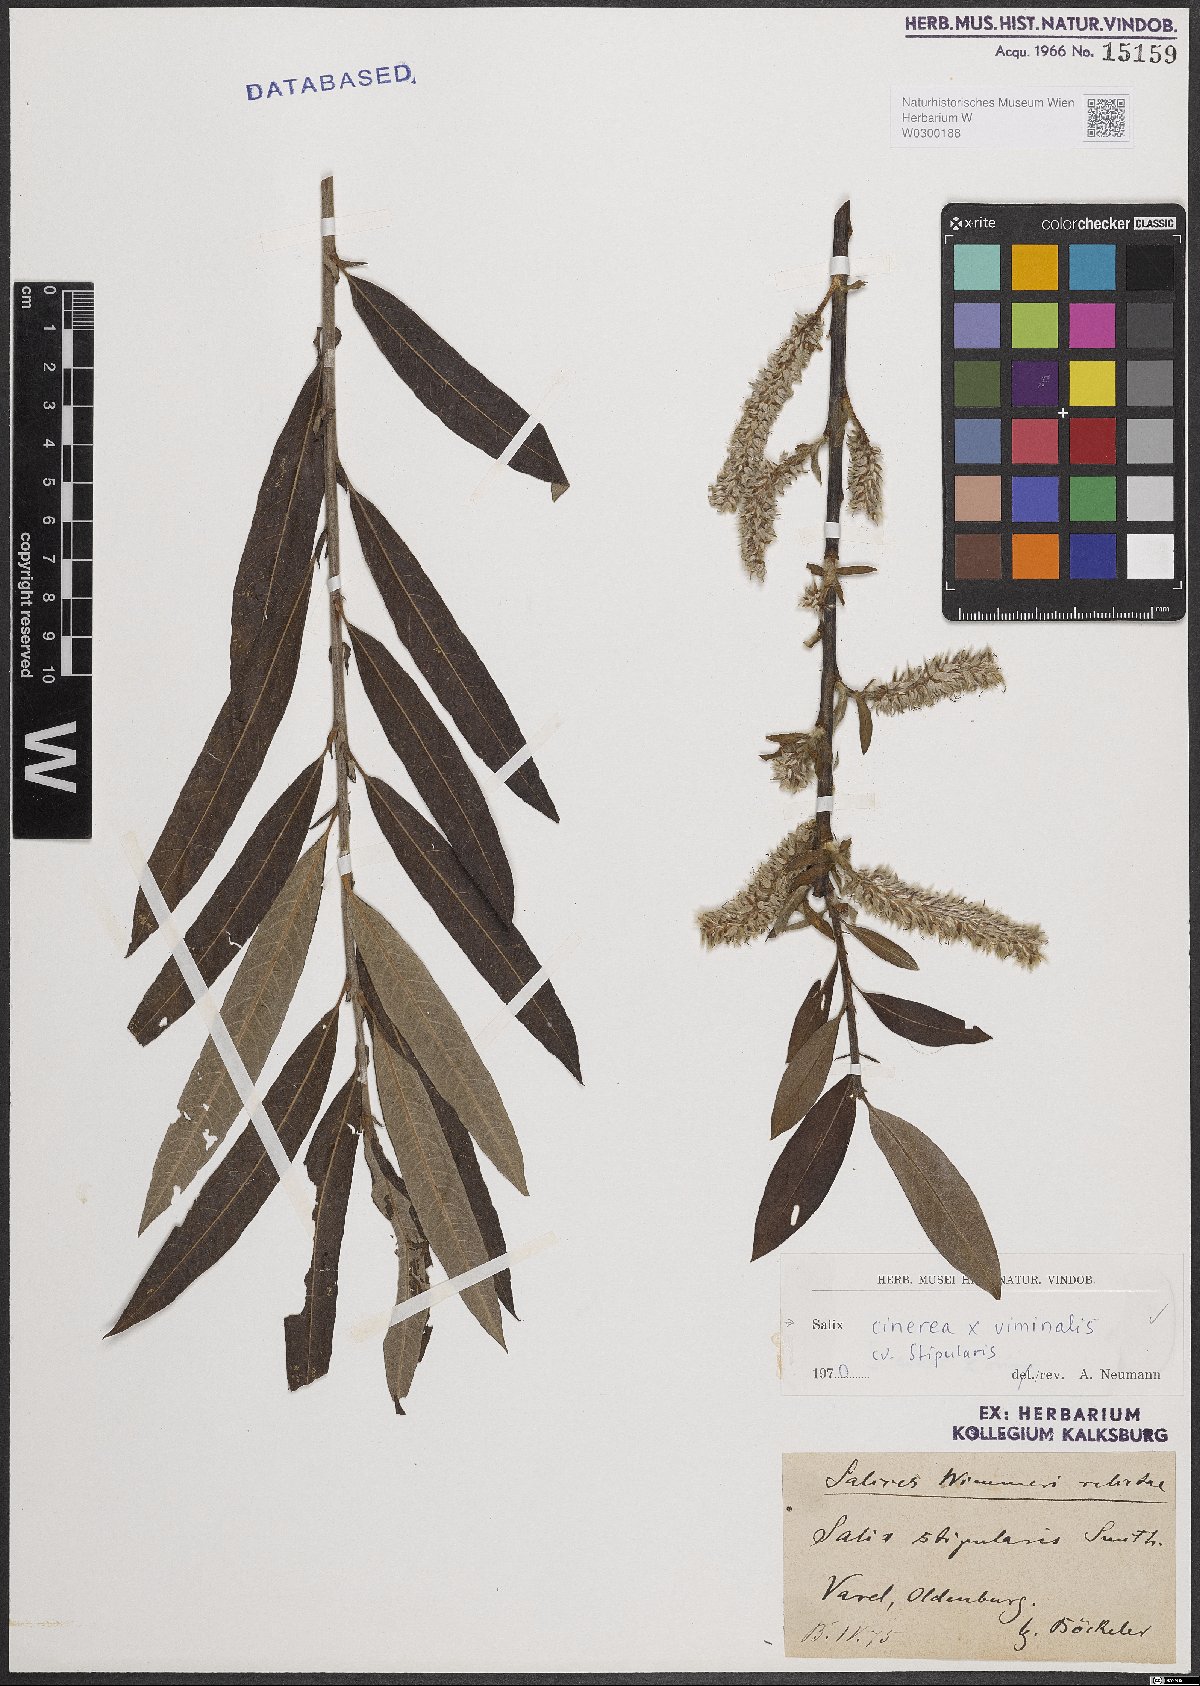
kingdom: Plantae
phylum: Tracheophyta
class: Magnoliopsida
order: Malpighiales
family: Salicaceae
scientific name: Salicaceae
